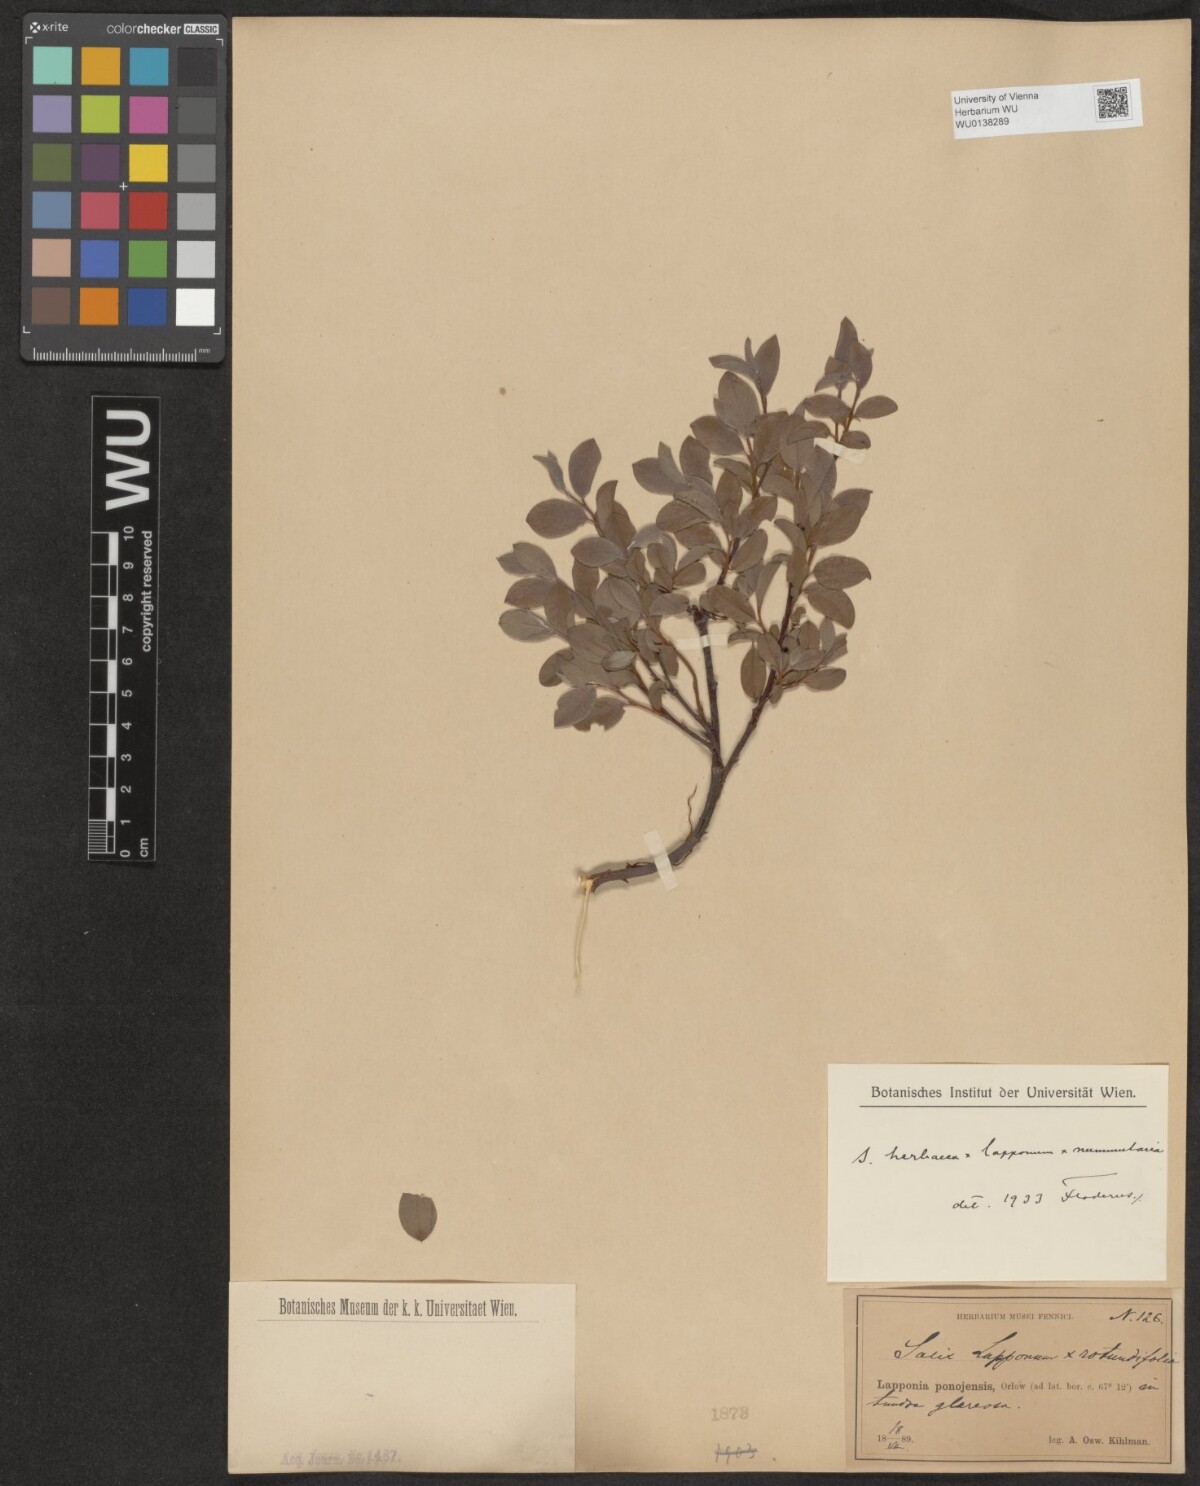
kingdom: Plantae
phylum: Tracheophyta
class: Magnoliopsida
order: Malpighiales
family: Salicaceae
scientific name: Salicaceae
